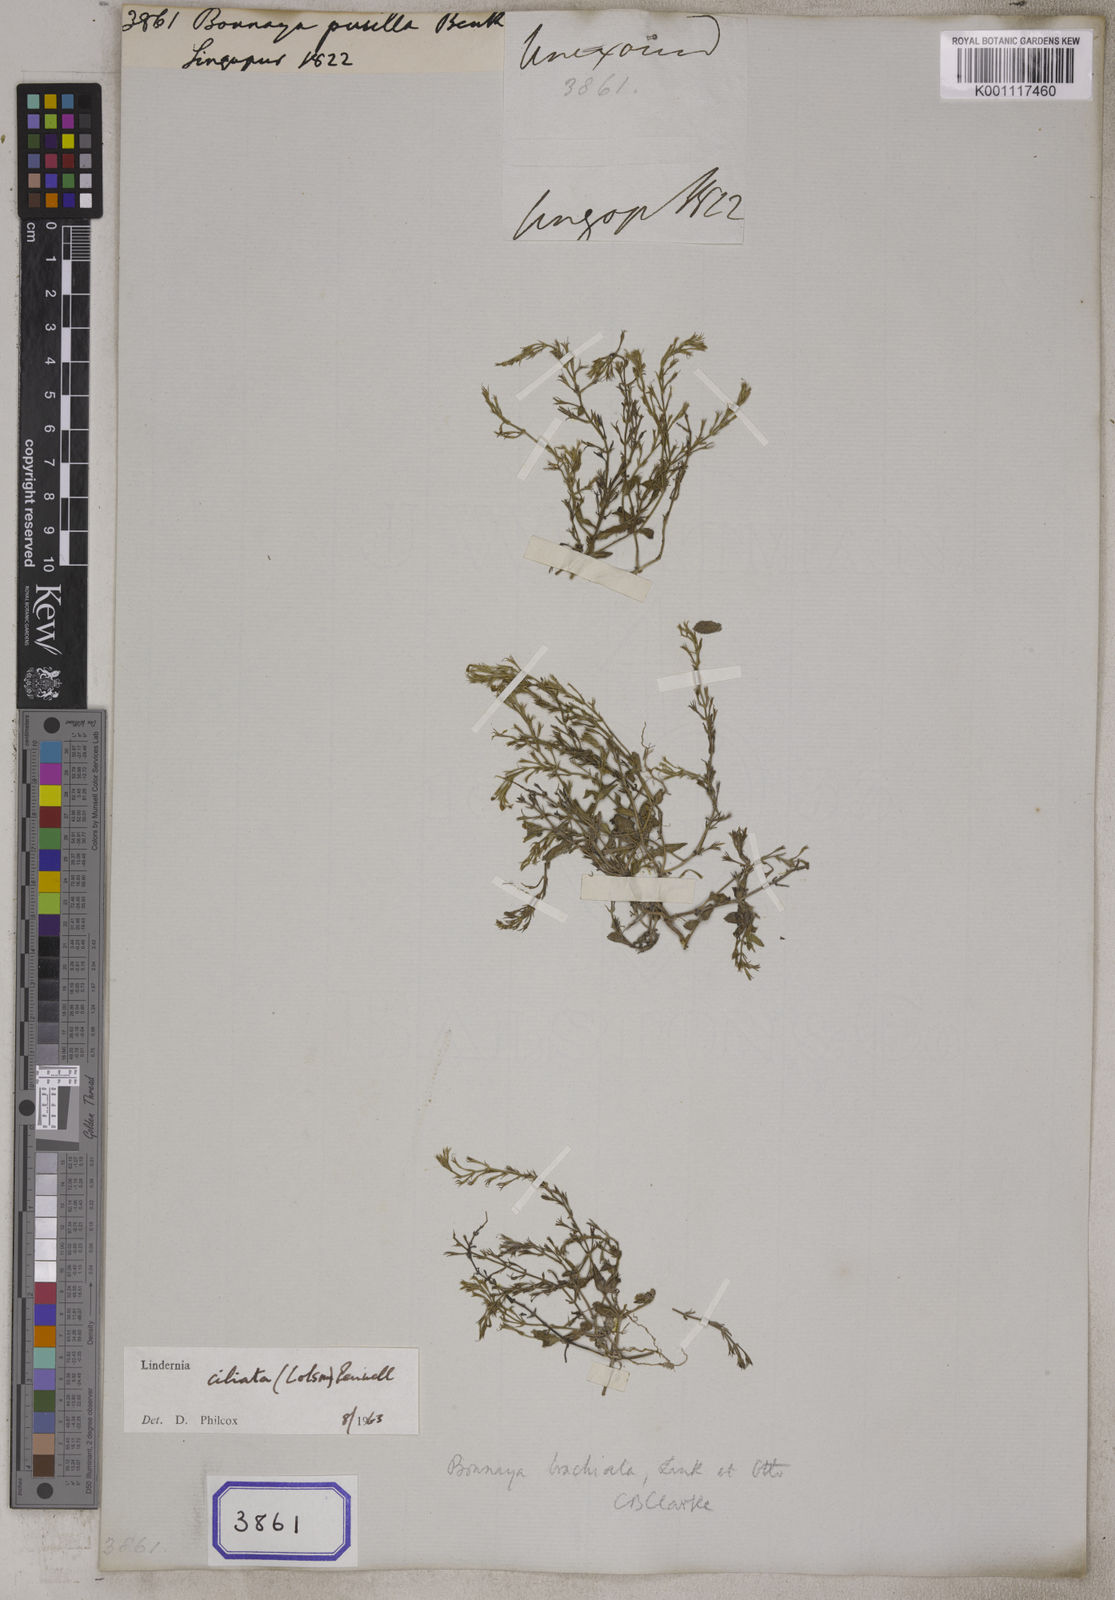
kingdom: Plantae
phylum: Tracheophyta
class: Magnoliopsida
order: Lamiales
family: Linderniaceae
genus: Bonnaya
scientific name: Bonnaya ciliata
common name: Hairy slitwort
